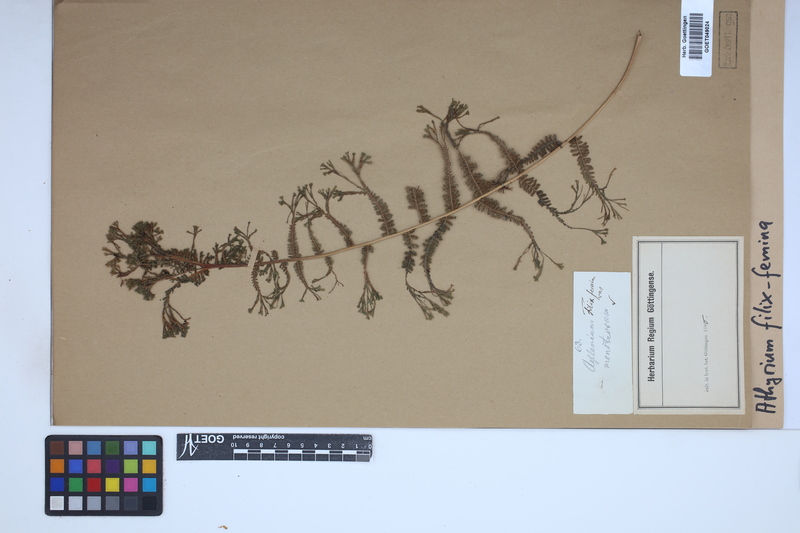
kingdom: Plantae
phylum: Tracheophyta
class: Polypodiopsida
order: Polypodiales
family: Athyriaceae
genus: Athyrium
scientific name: Athyrium filix-femina
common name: Lady fern
